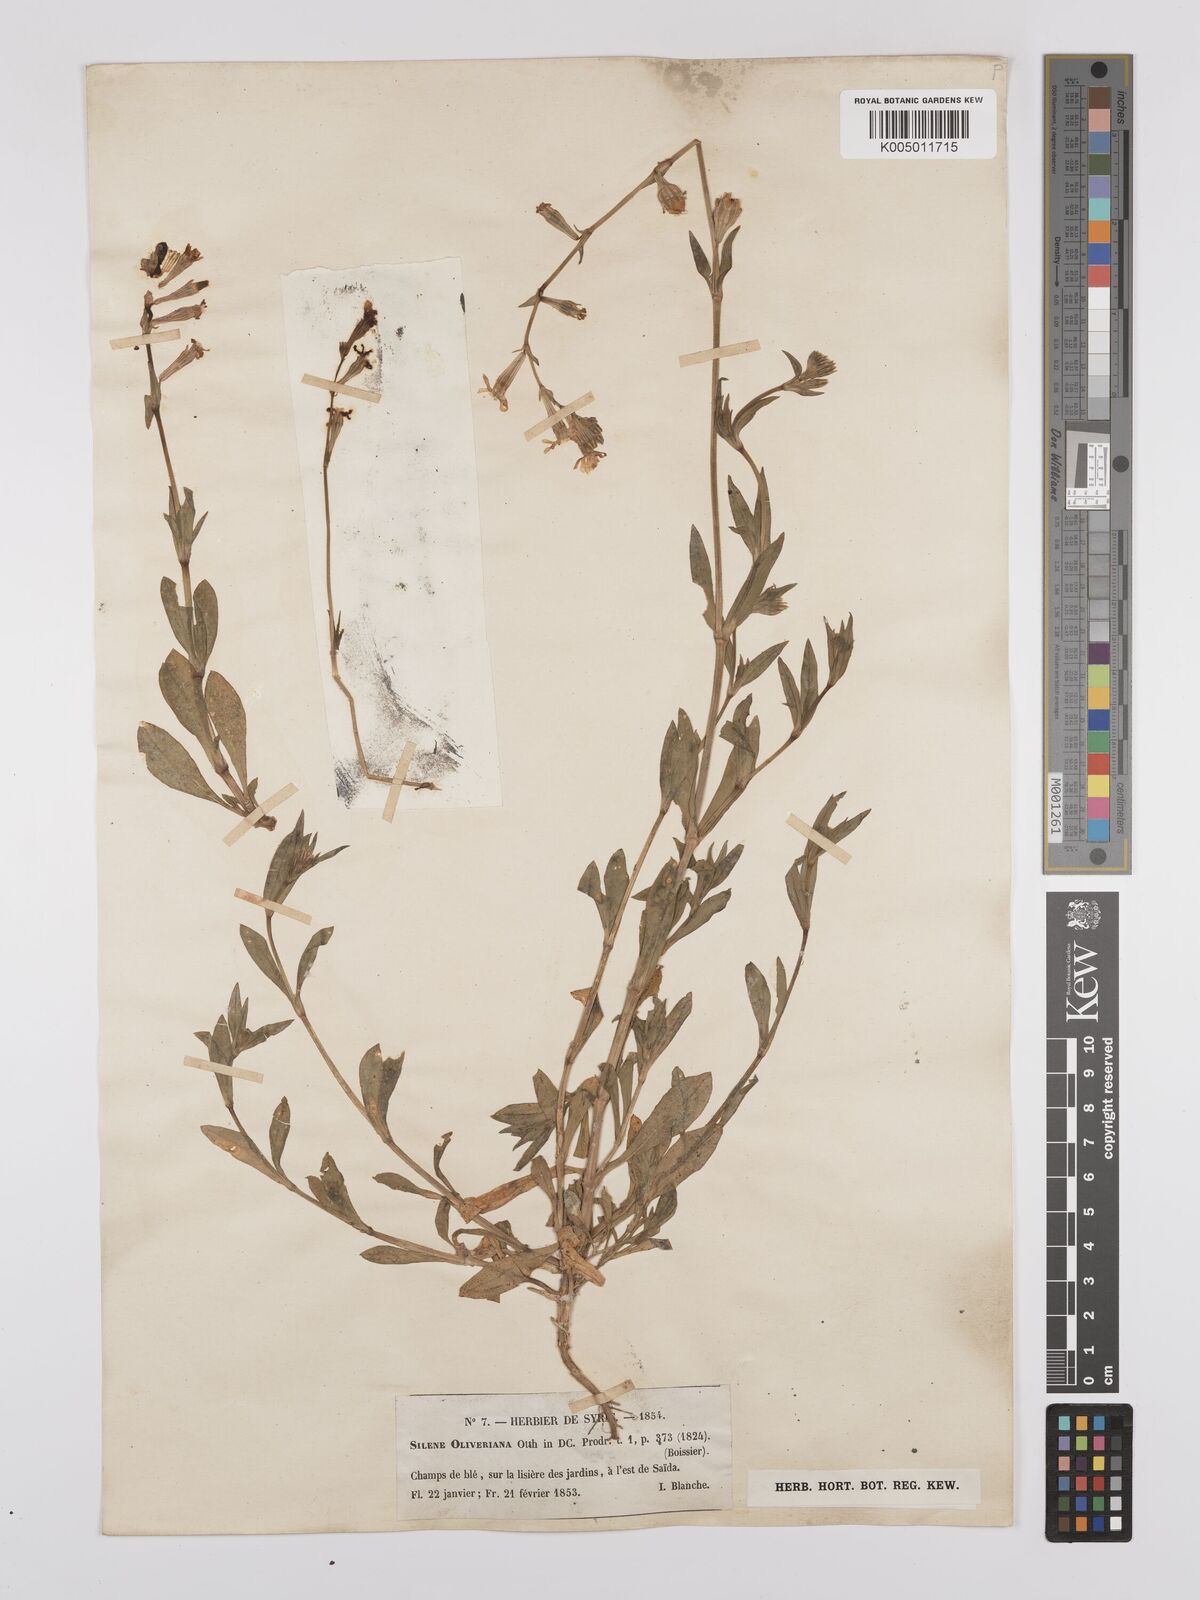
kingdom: Plantae
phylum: Tracheophyta
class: Magnoliopsida
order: Caryophyllales
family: Caryophyllaceae
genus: Silene
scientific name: Silene oliveriana
